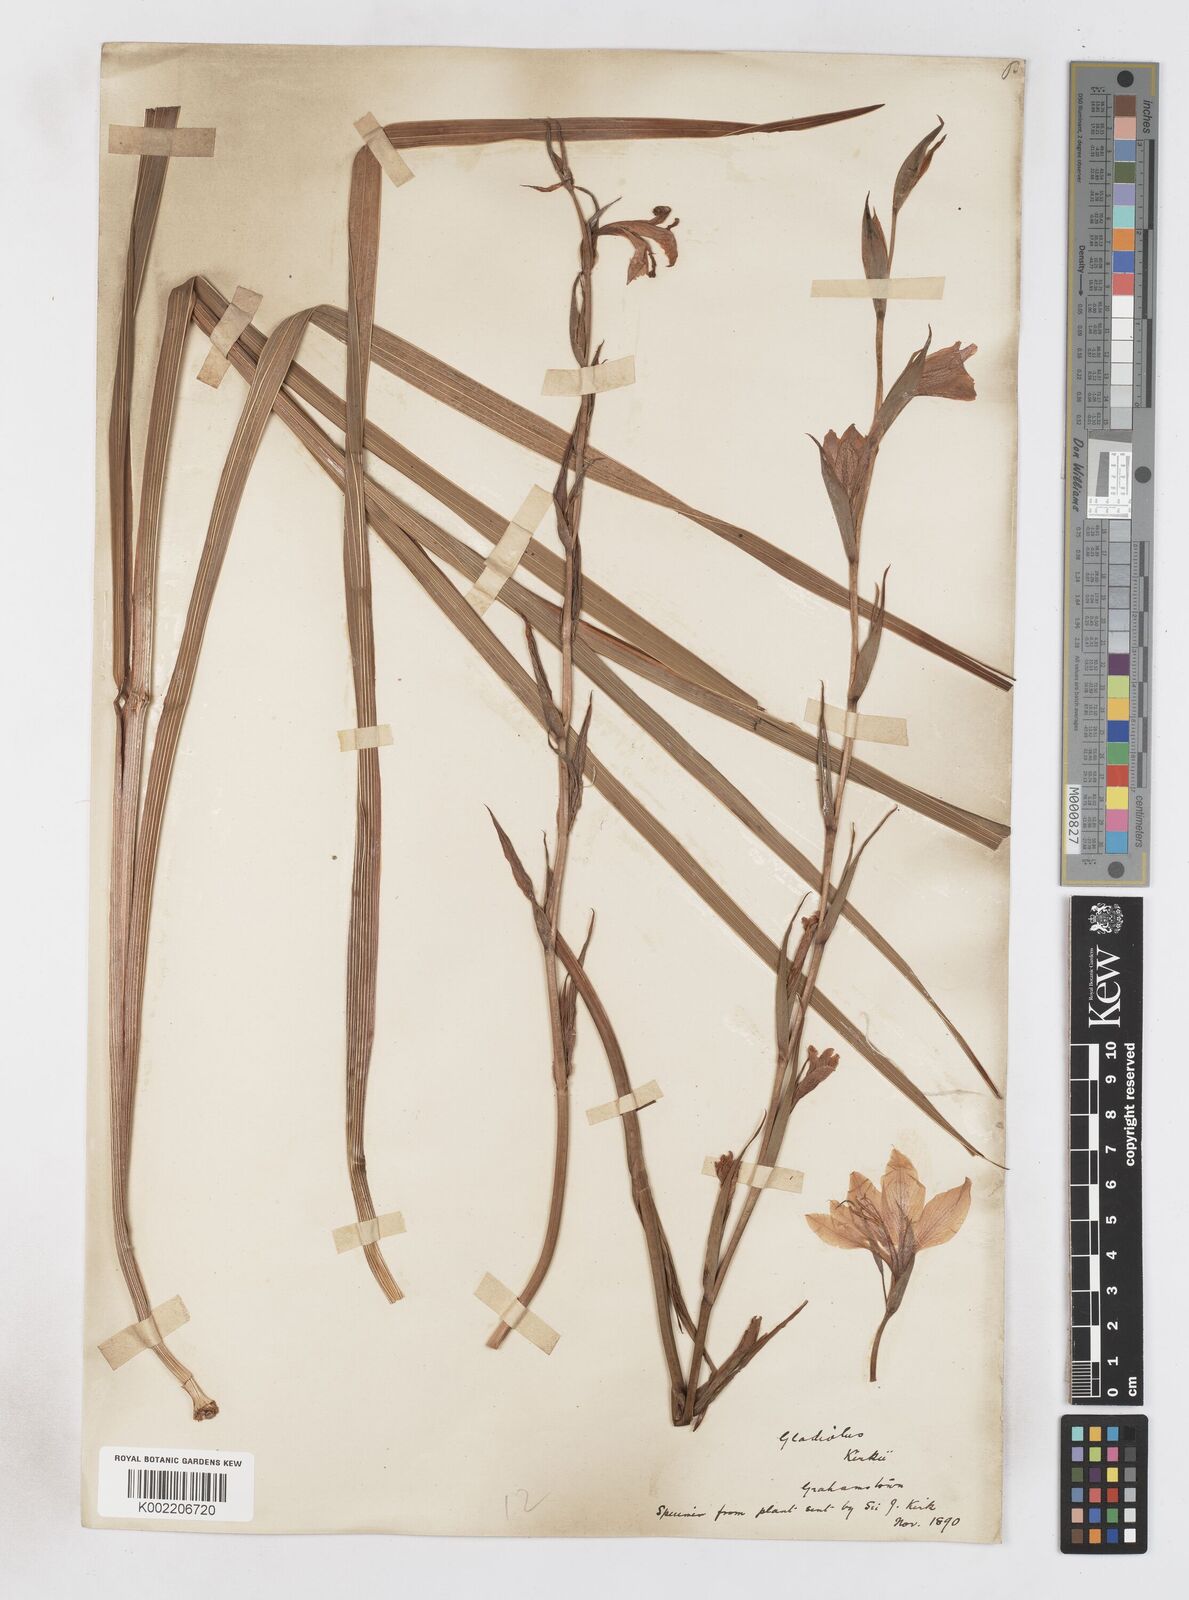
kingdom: Plantae
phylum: Tracheophyta
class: Liliopsida
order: Asparagales
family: Iridaceae
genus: Gladiolus
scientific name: Gladiolus ochroleucus
